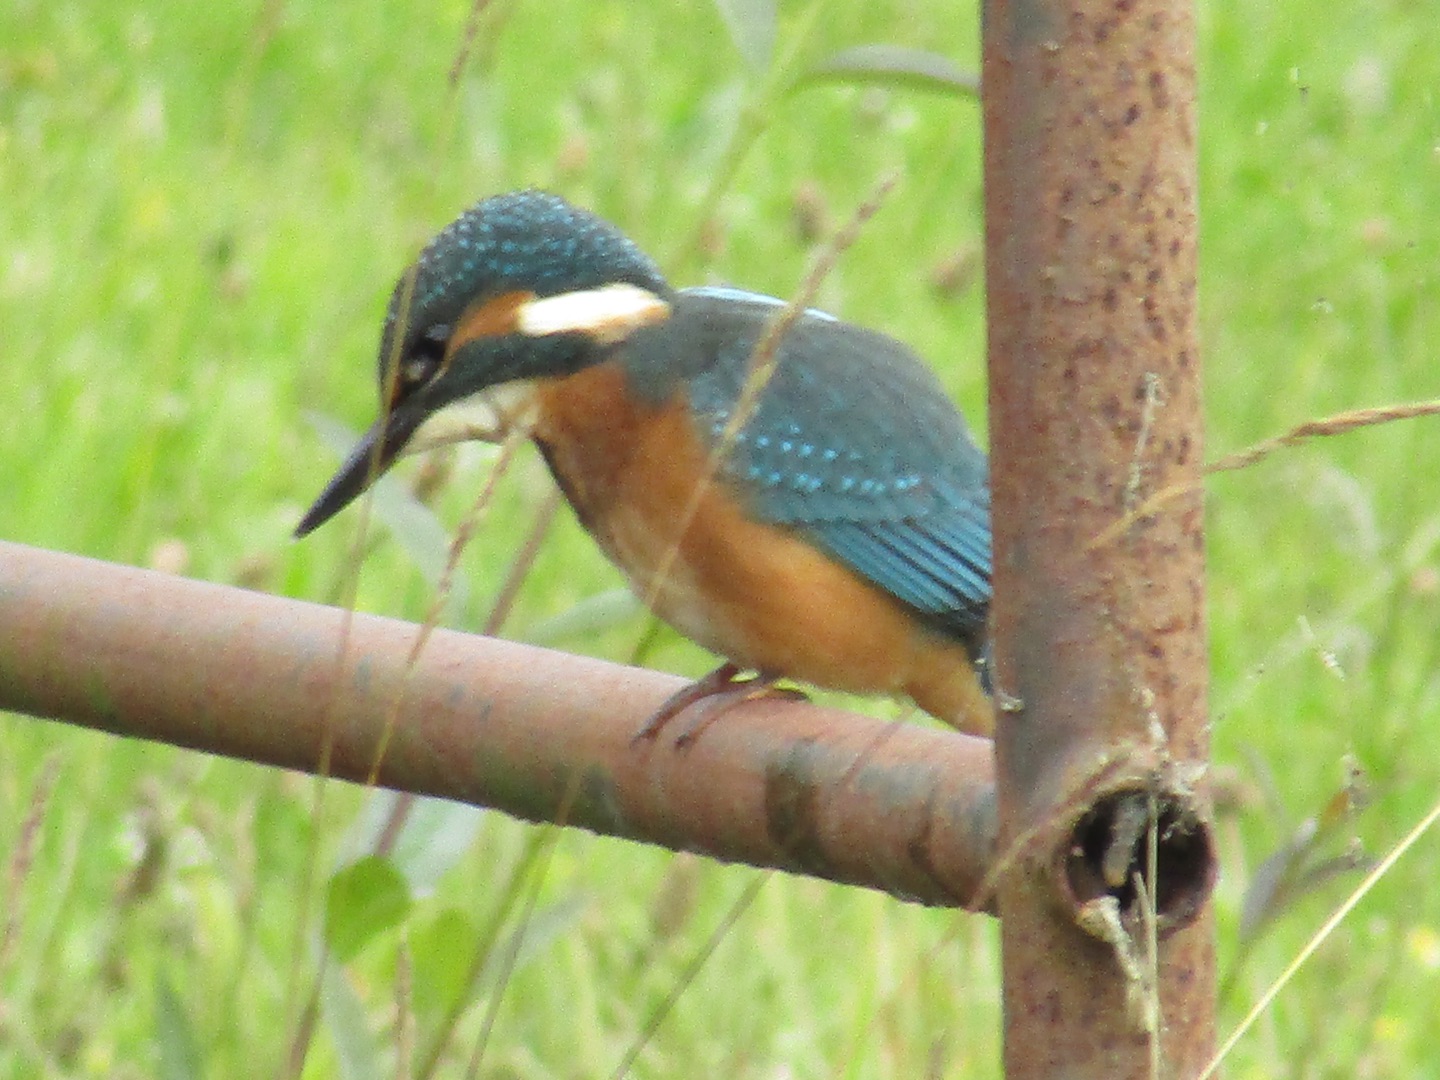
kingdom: Animalia
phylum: Chordata
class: Aves
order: Coraciiformes
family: Alcedinidae
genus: Alcedo
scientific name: Alcedo atthis
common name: Isfugl
